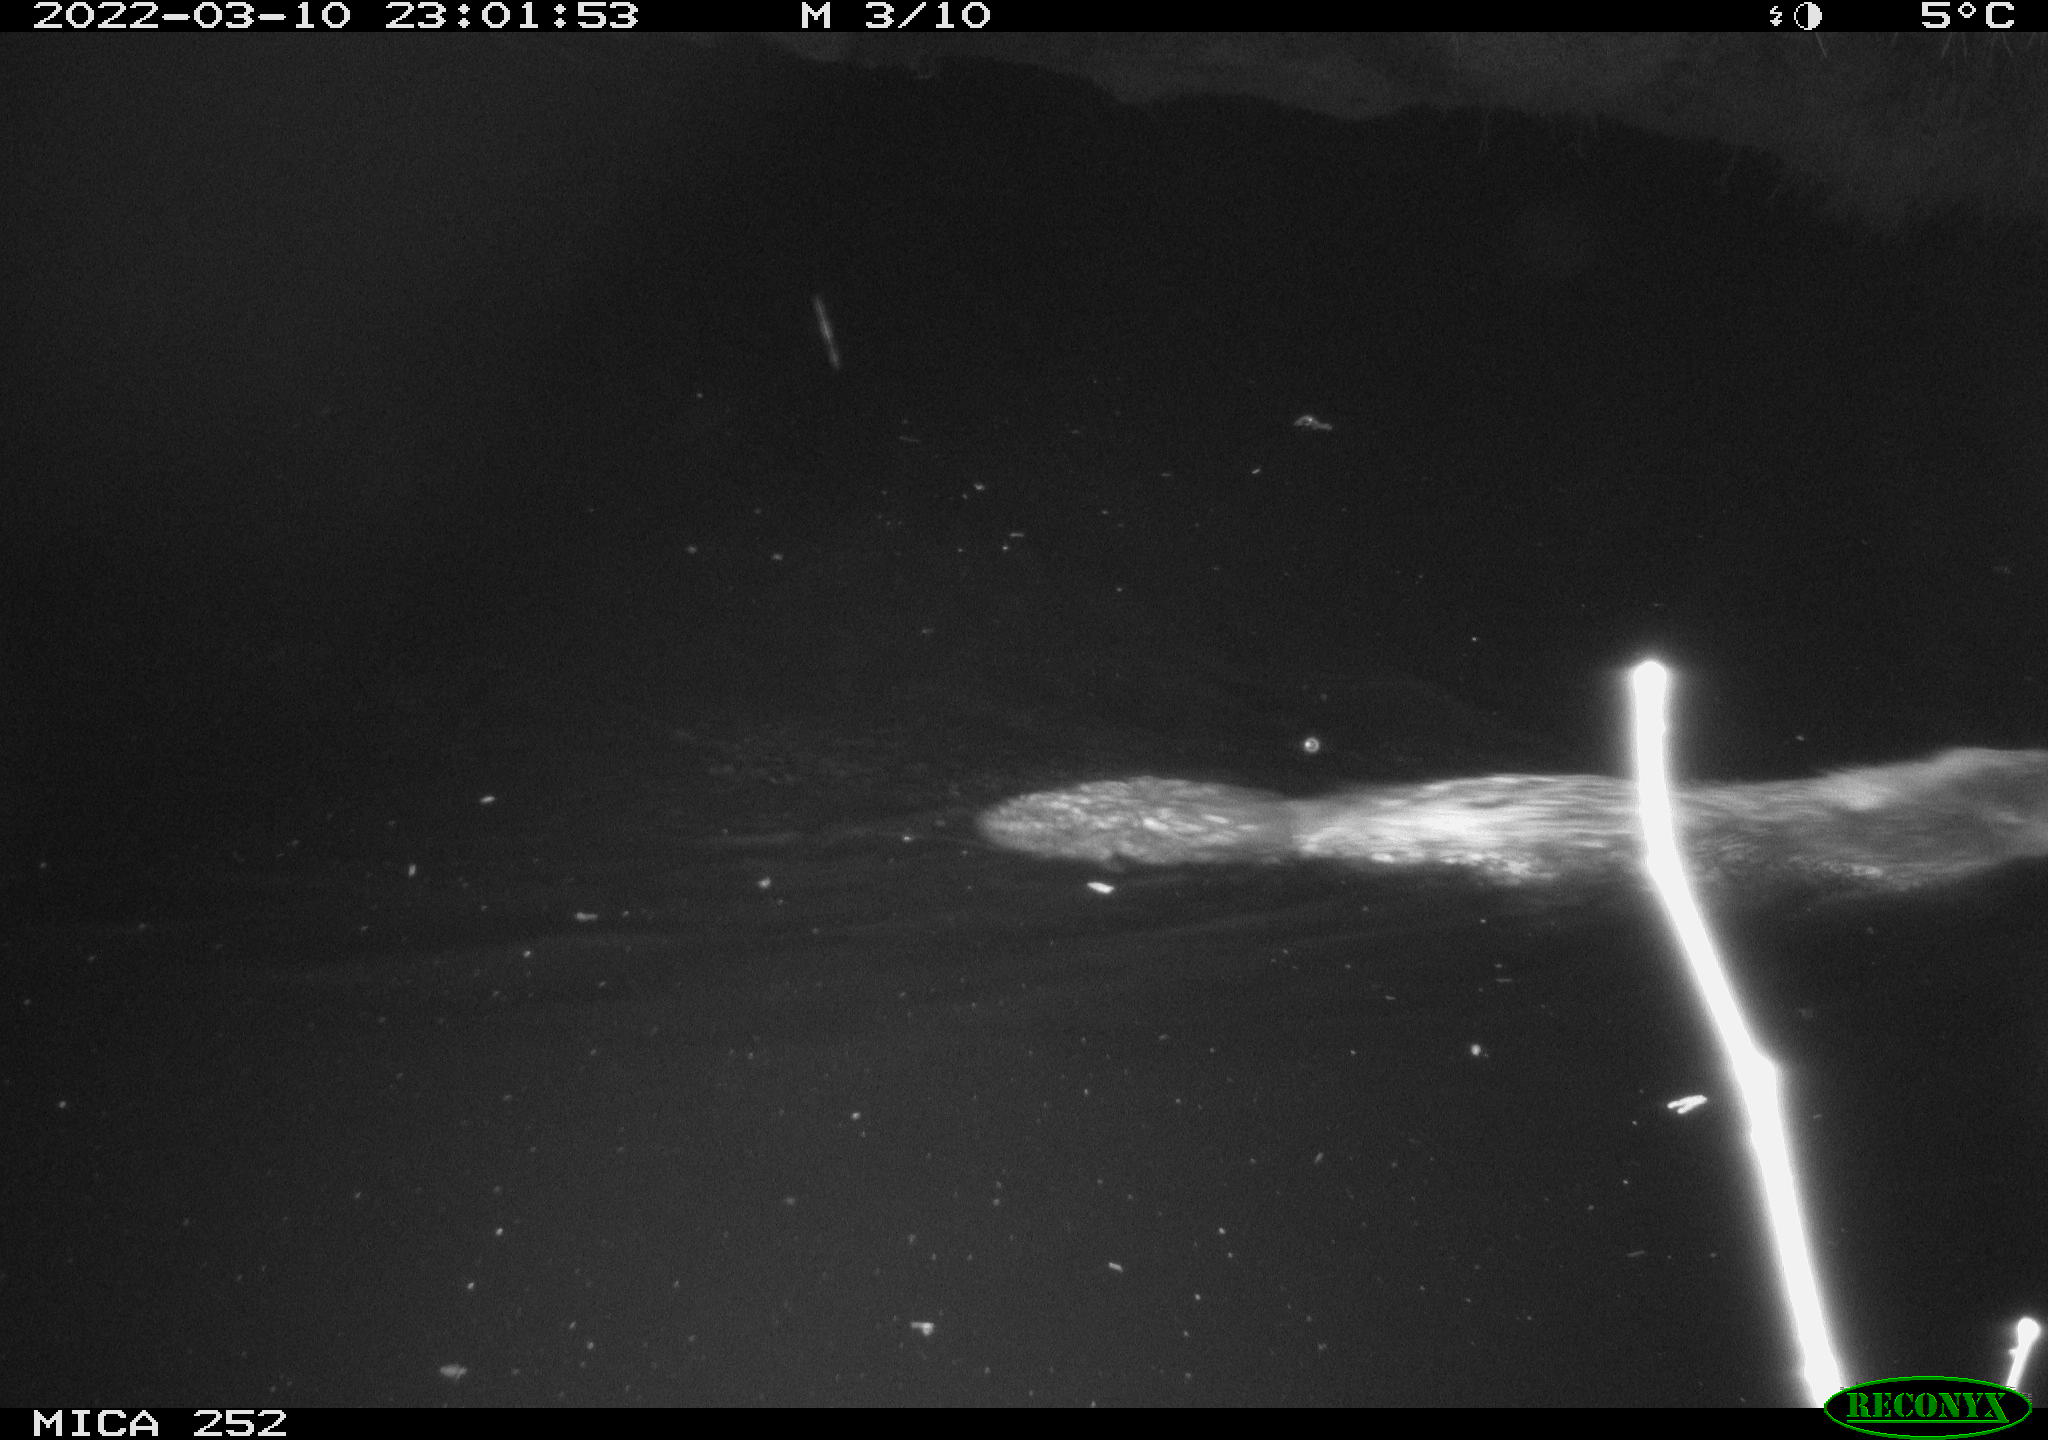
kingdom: Animalia
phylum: Chordata
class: Mammalia
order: Rodentia
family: Castoridae
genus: Castor
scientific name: Castor fiber
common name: Eurasian beaver
